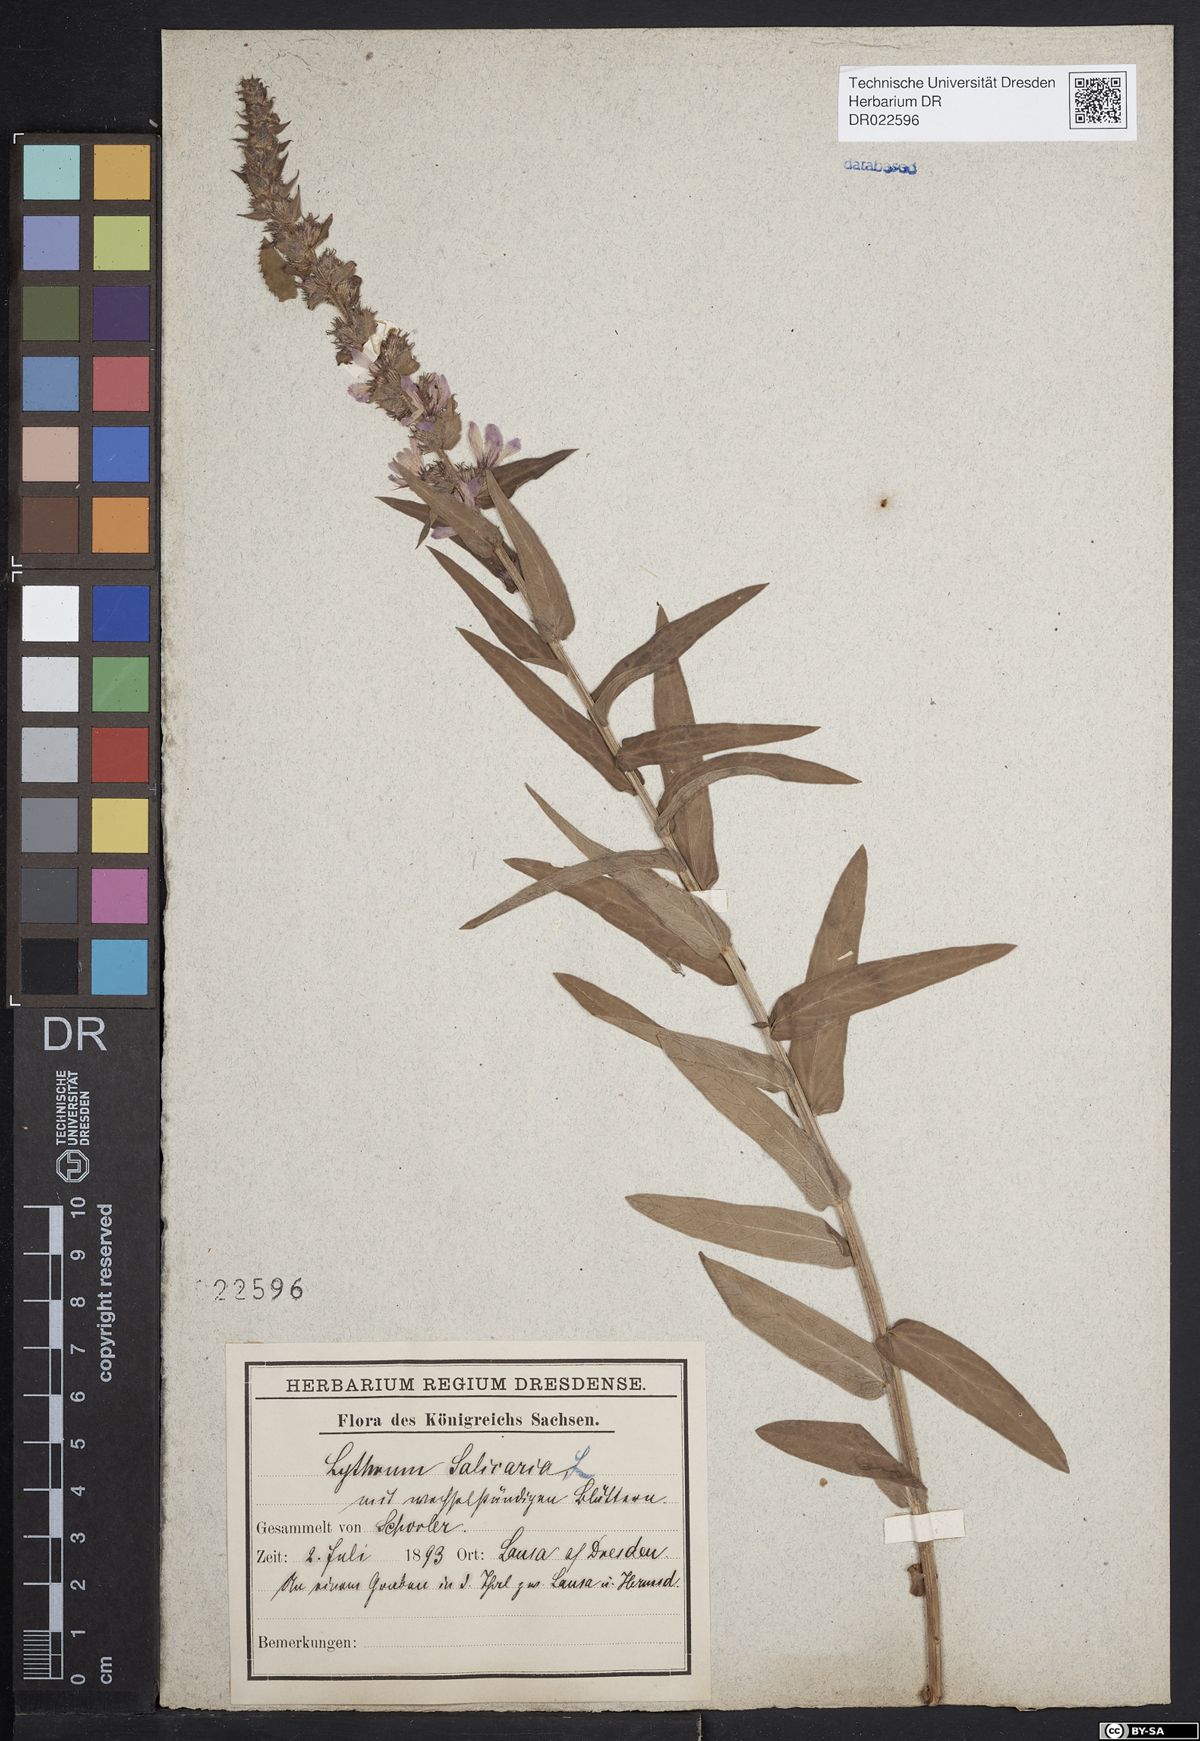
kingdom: Plantae
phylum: Tracheophyta
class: Magnoliopsida
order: Myrtales
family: Lythraceae
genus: Lythrum
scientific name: Lythrum salicaria
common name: Purple loosestrife
